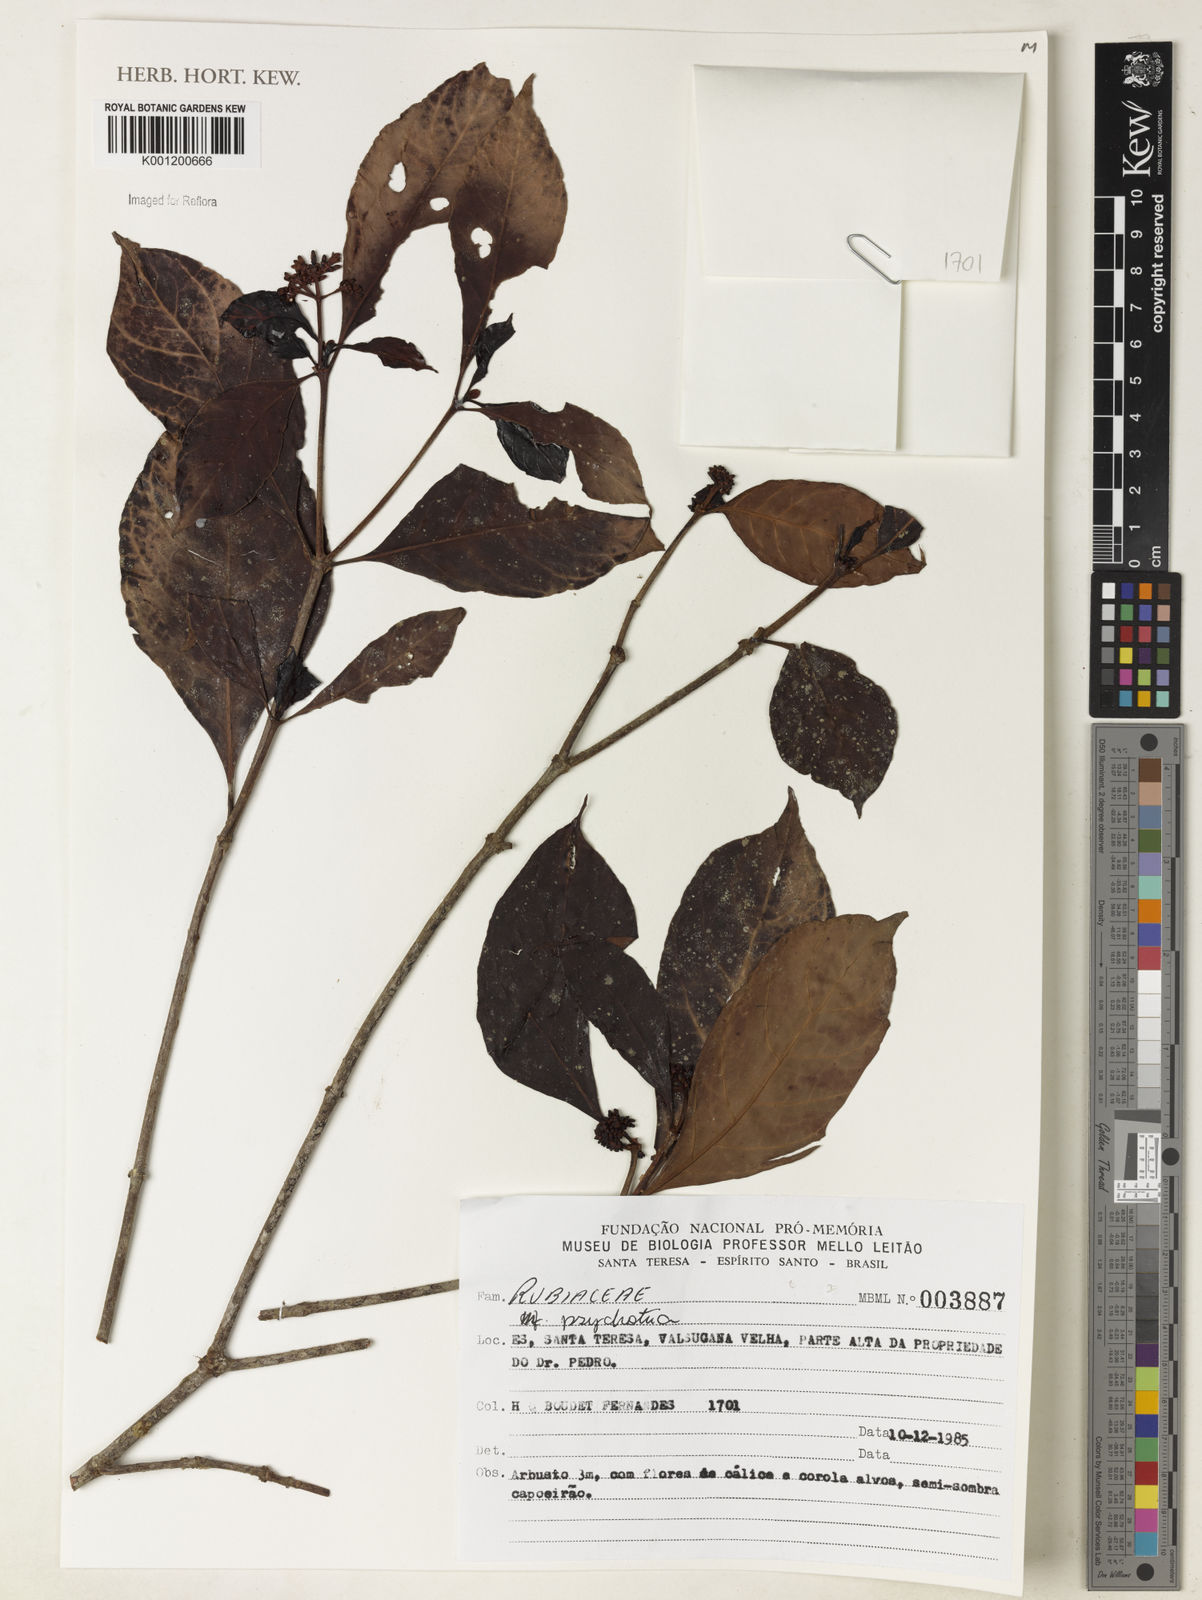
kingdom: Plantae
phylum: Tracheophyta
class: Magnoliopsida
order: Gentianales
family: Rubiaceae
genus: Psychotria
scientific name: Psychotria
